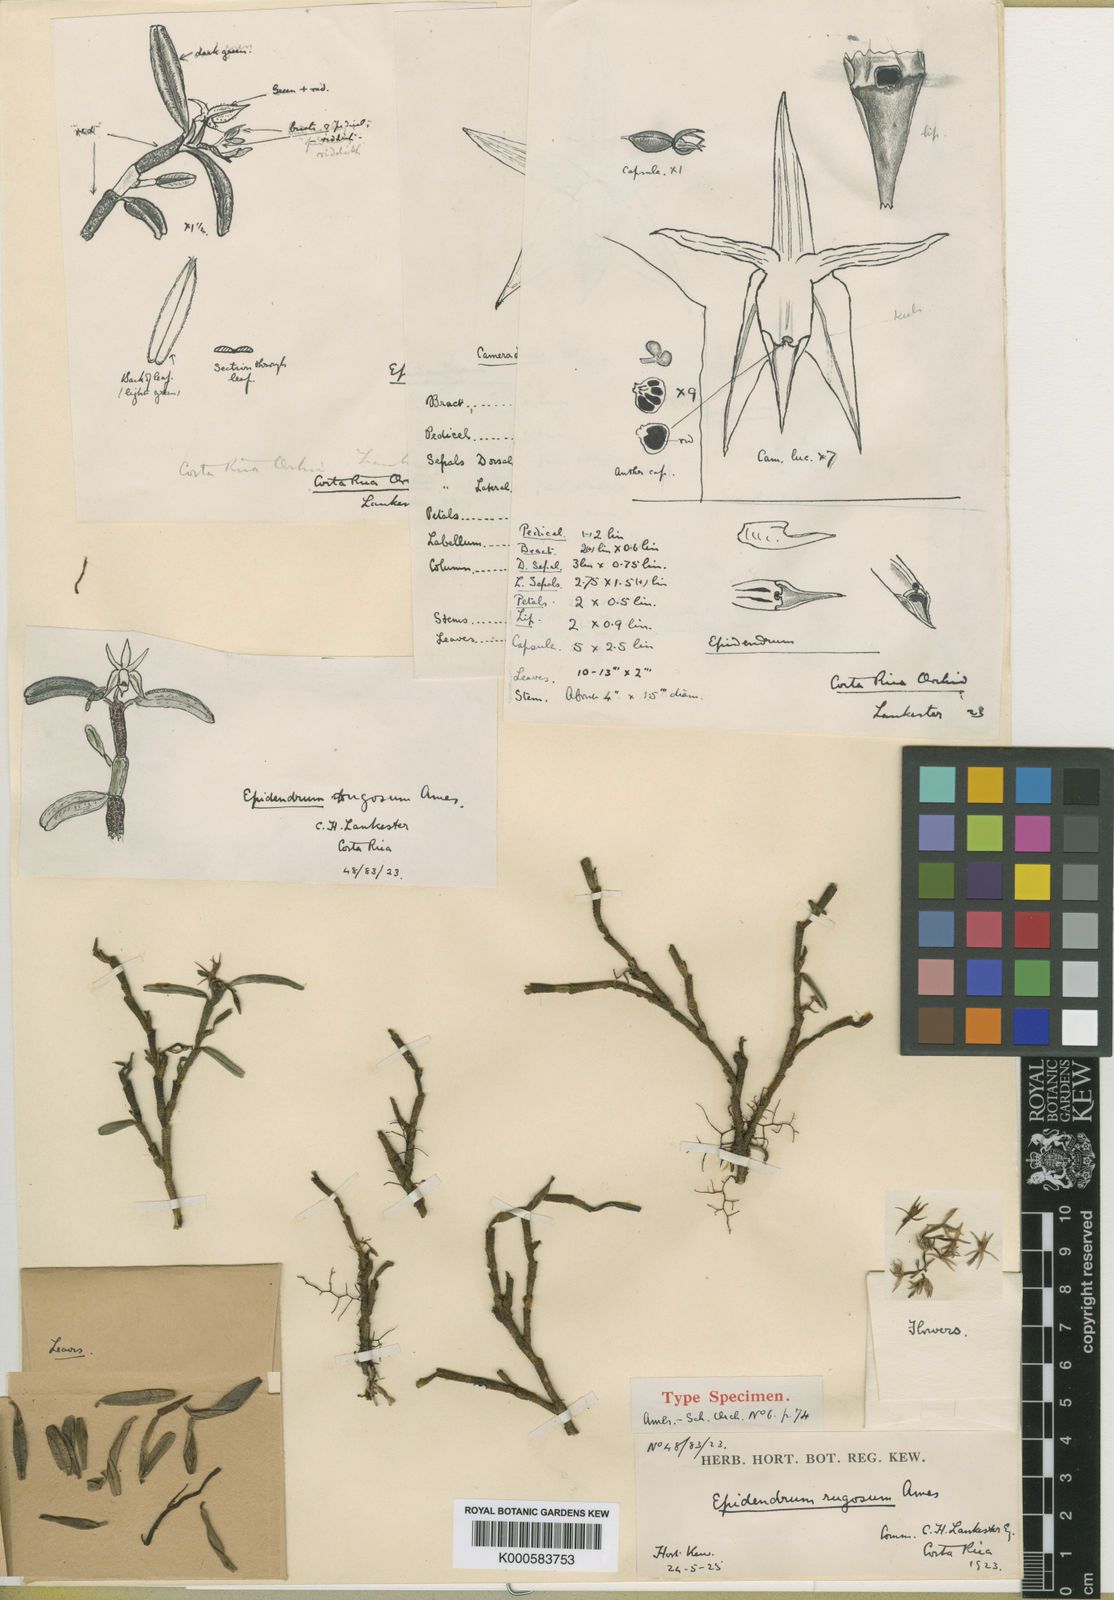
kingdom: Plantae
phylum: Tracheophyta
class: Liliopsida
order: Asparagales
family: Orchidaceae
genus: Epidendrum
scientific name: Epidendrum rugosum
